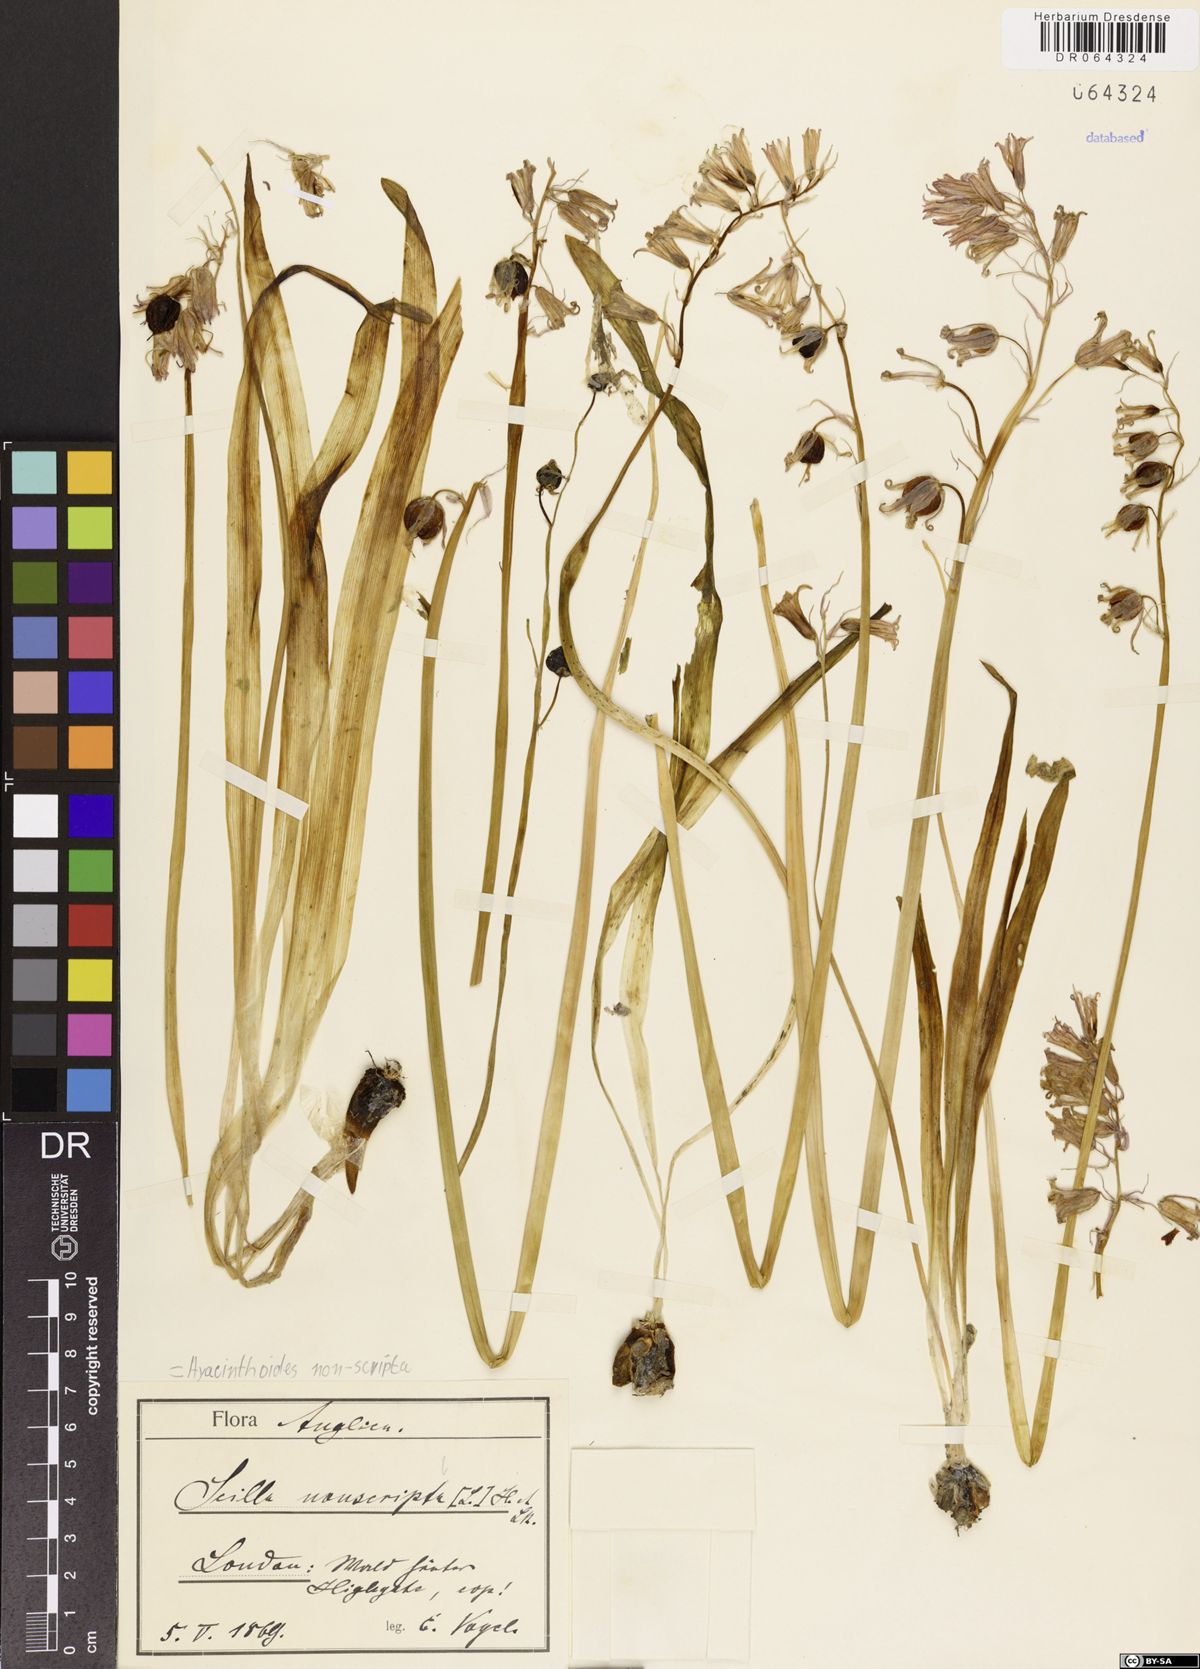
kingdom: Plantae
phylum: Tracheophyta
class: Liliopsida
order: Asparagales
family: Asparagaceae
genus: Hyacinthoides
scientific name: Hyacinthoides non-scripta
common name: Bluebell
